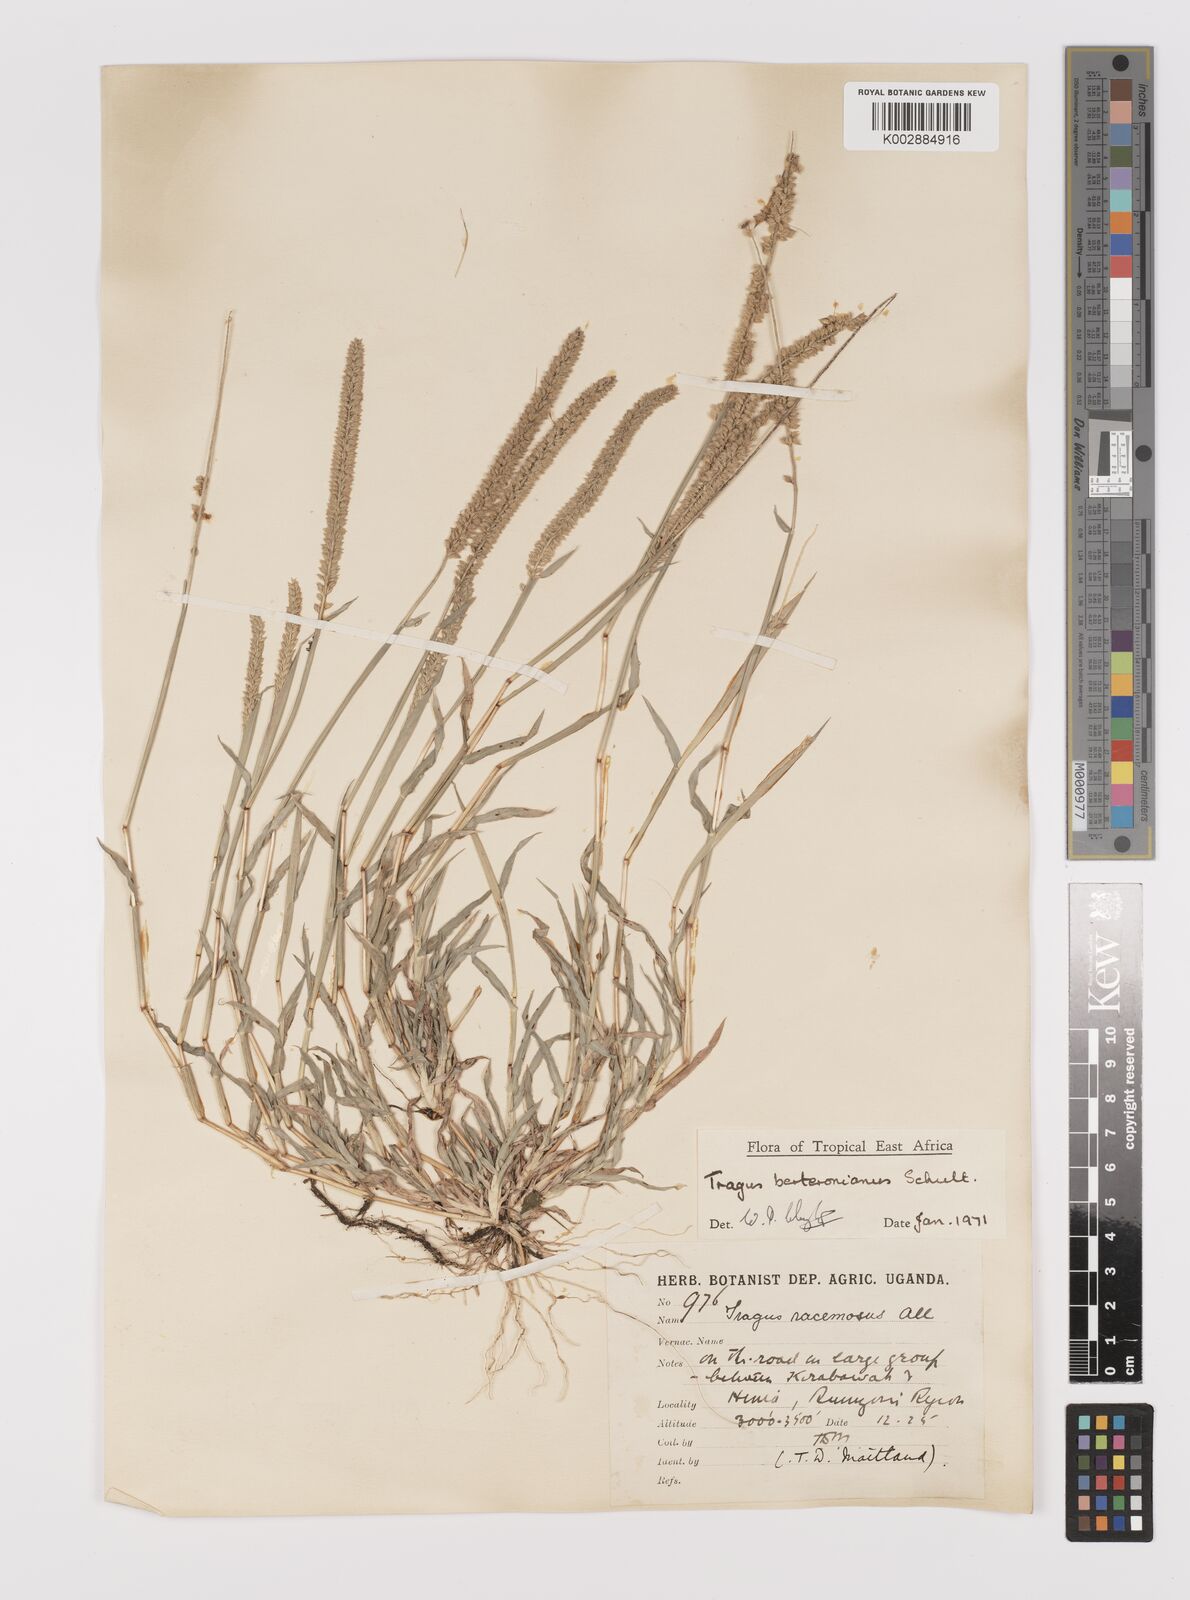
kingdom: Plantae
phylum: Tracheophyta
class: Liliopsida
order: Poales
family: Poaceae
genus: Tragus
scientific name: Tragus berteronianus
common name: African bur-grass
